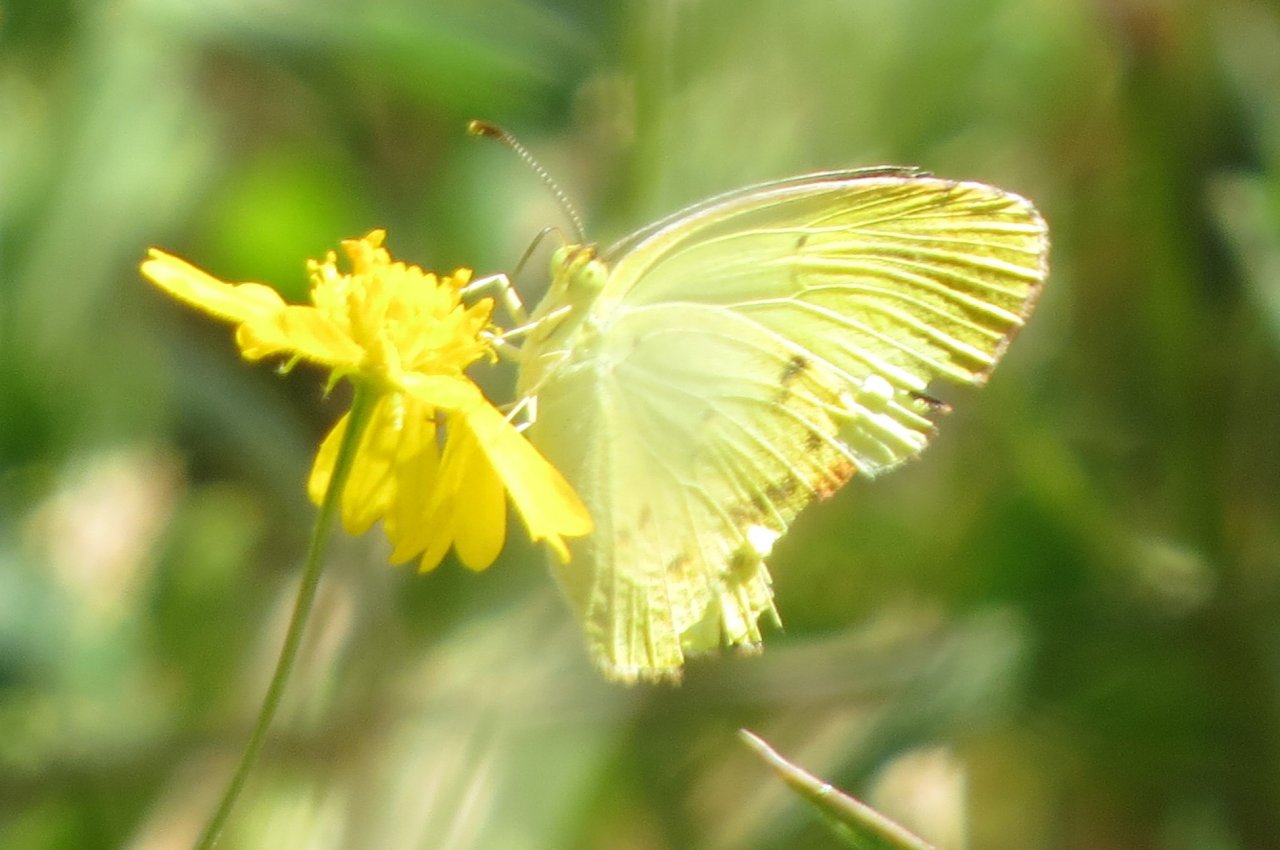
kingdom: Animalia
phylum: Arthropoda
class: Insecta
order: Lepidoptera
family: Pieridae
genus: Pyrisitia
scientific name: Pyrisitia lisa
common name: Little Yellow
